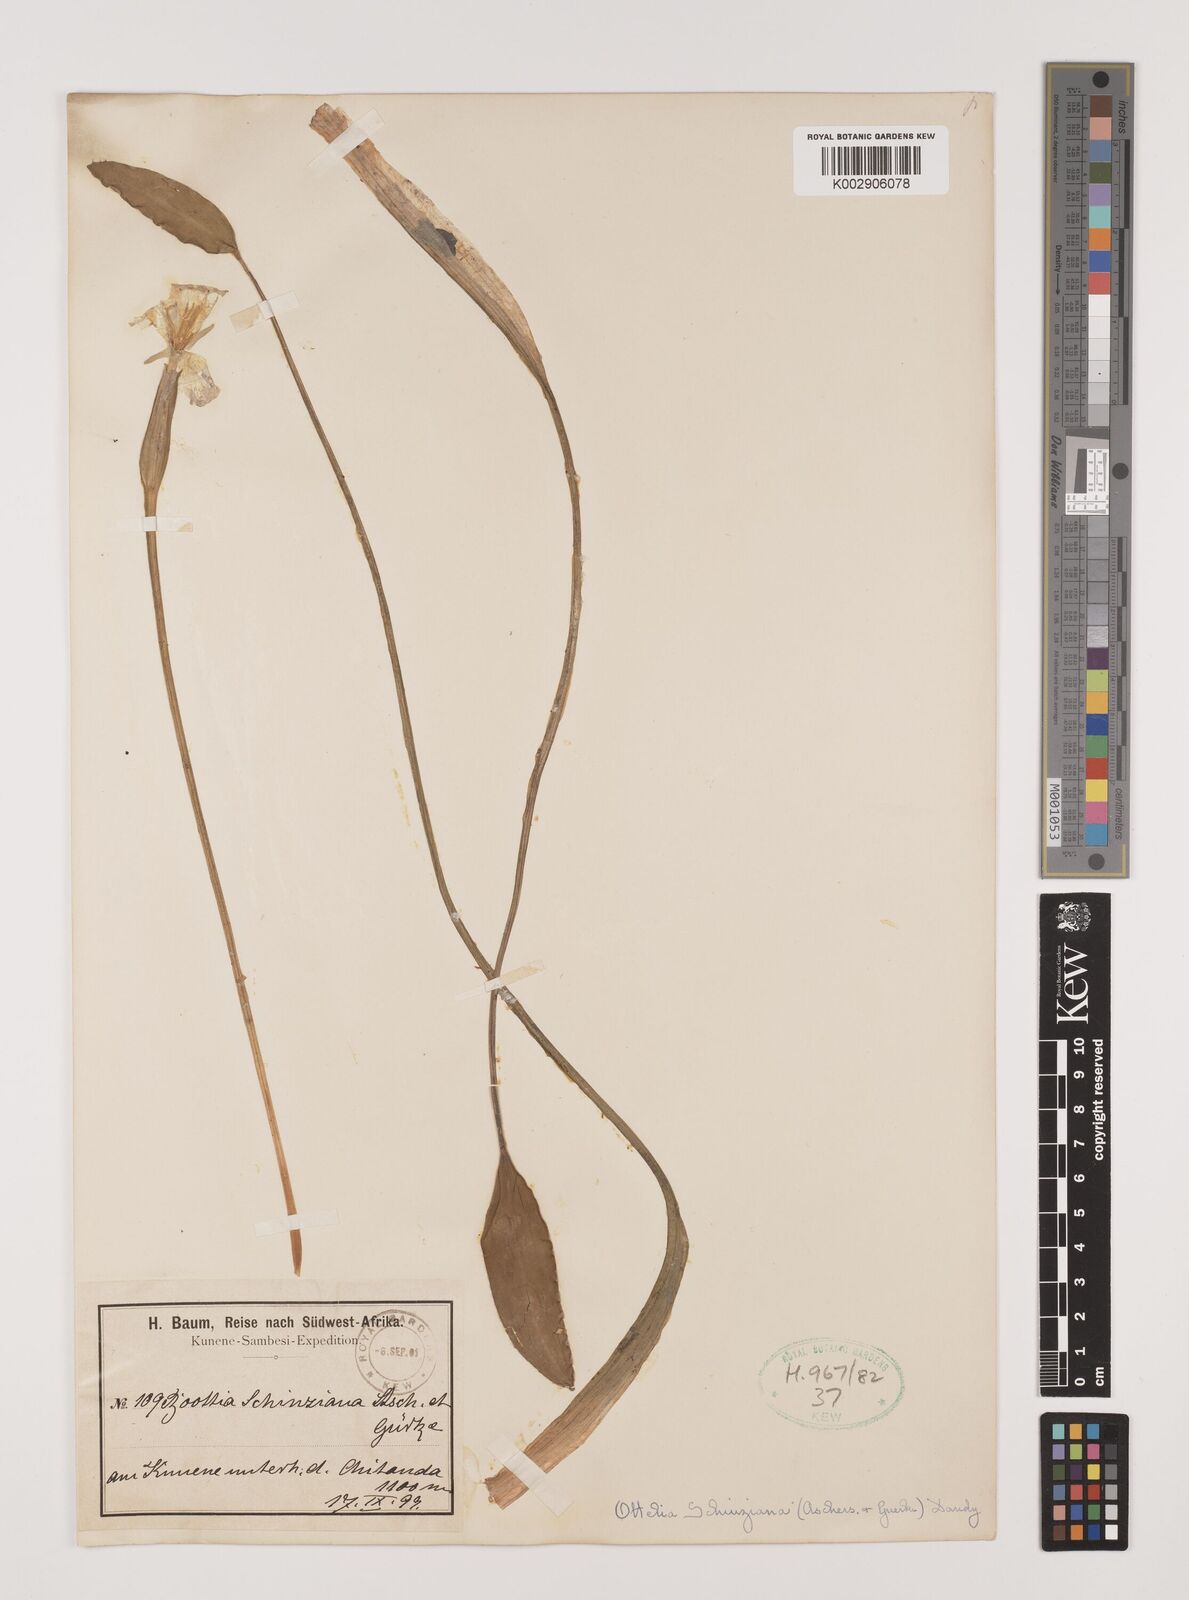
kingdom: Plantae
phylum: Tracheophyta
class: Liliopsida
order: Alismatales
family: Hydrocharitaceae
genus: Ottelia
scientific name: Ottelia exserta
